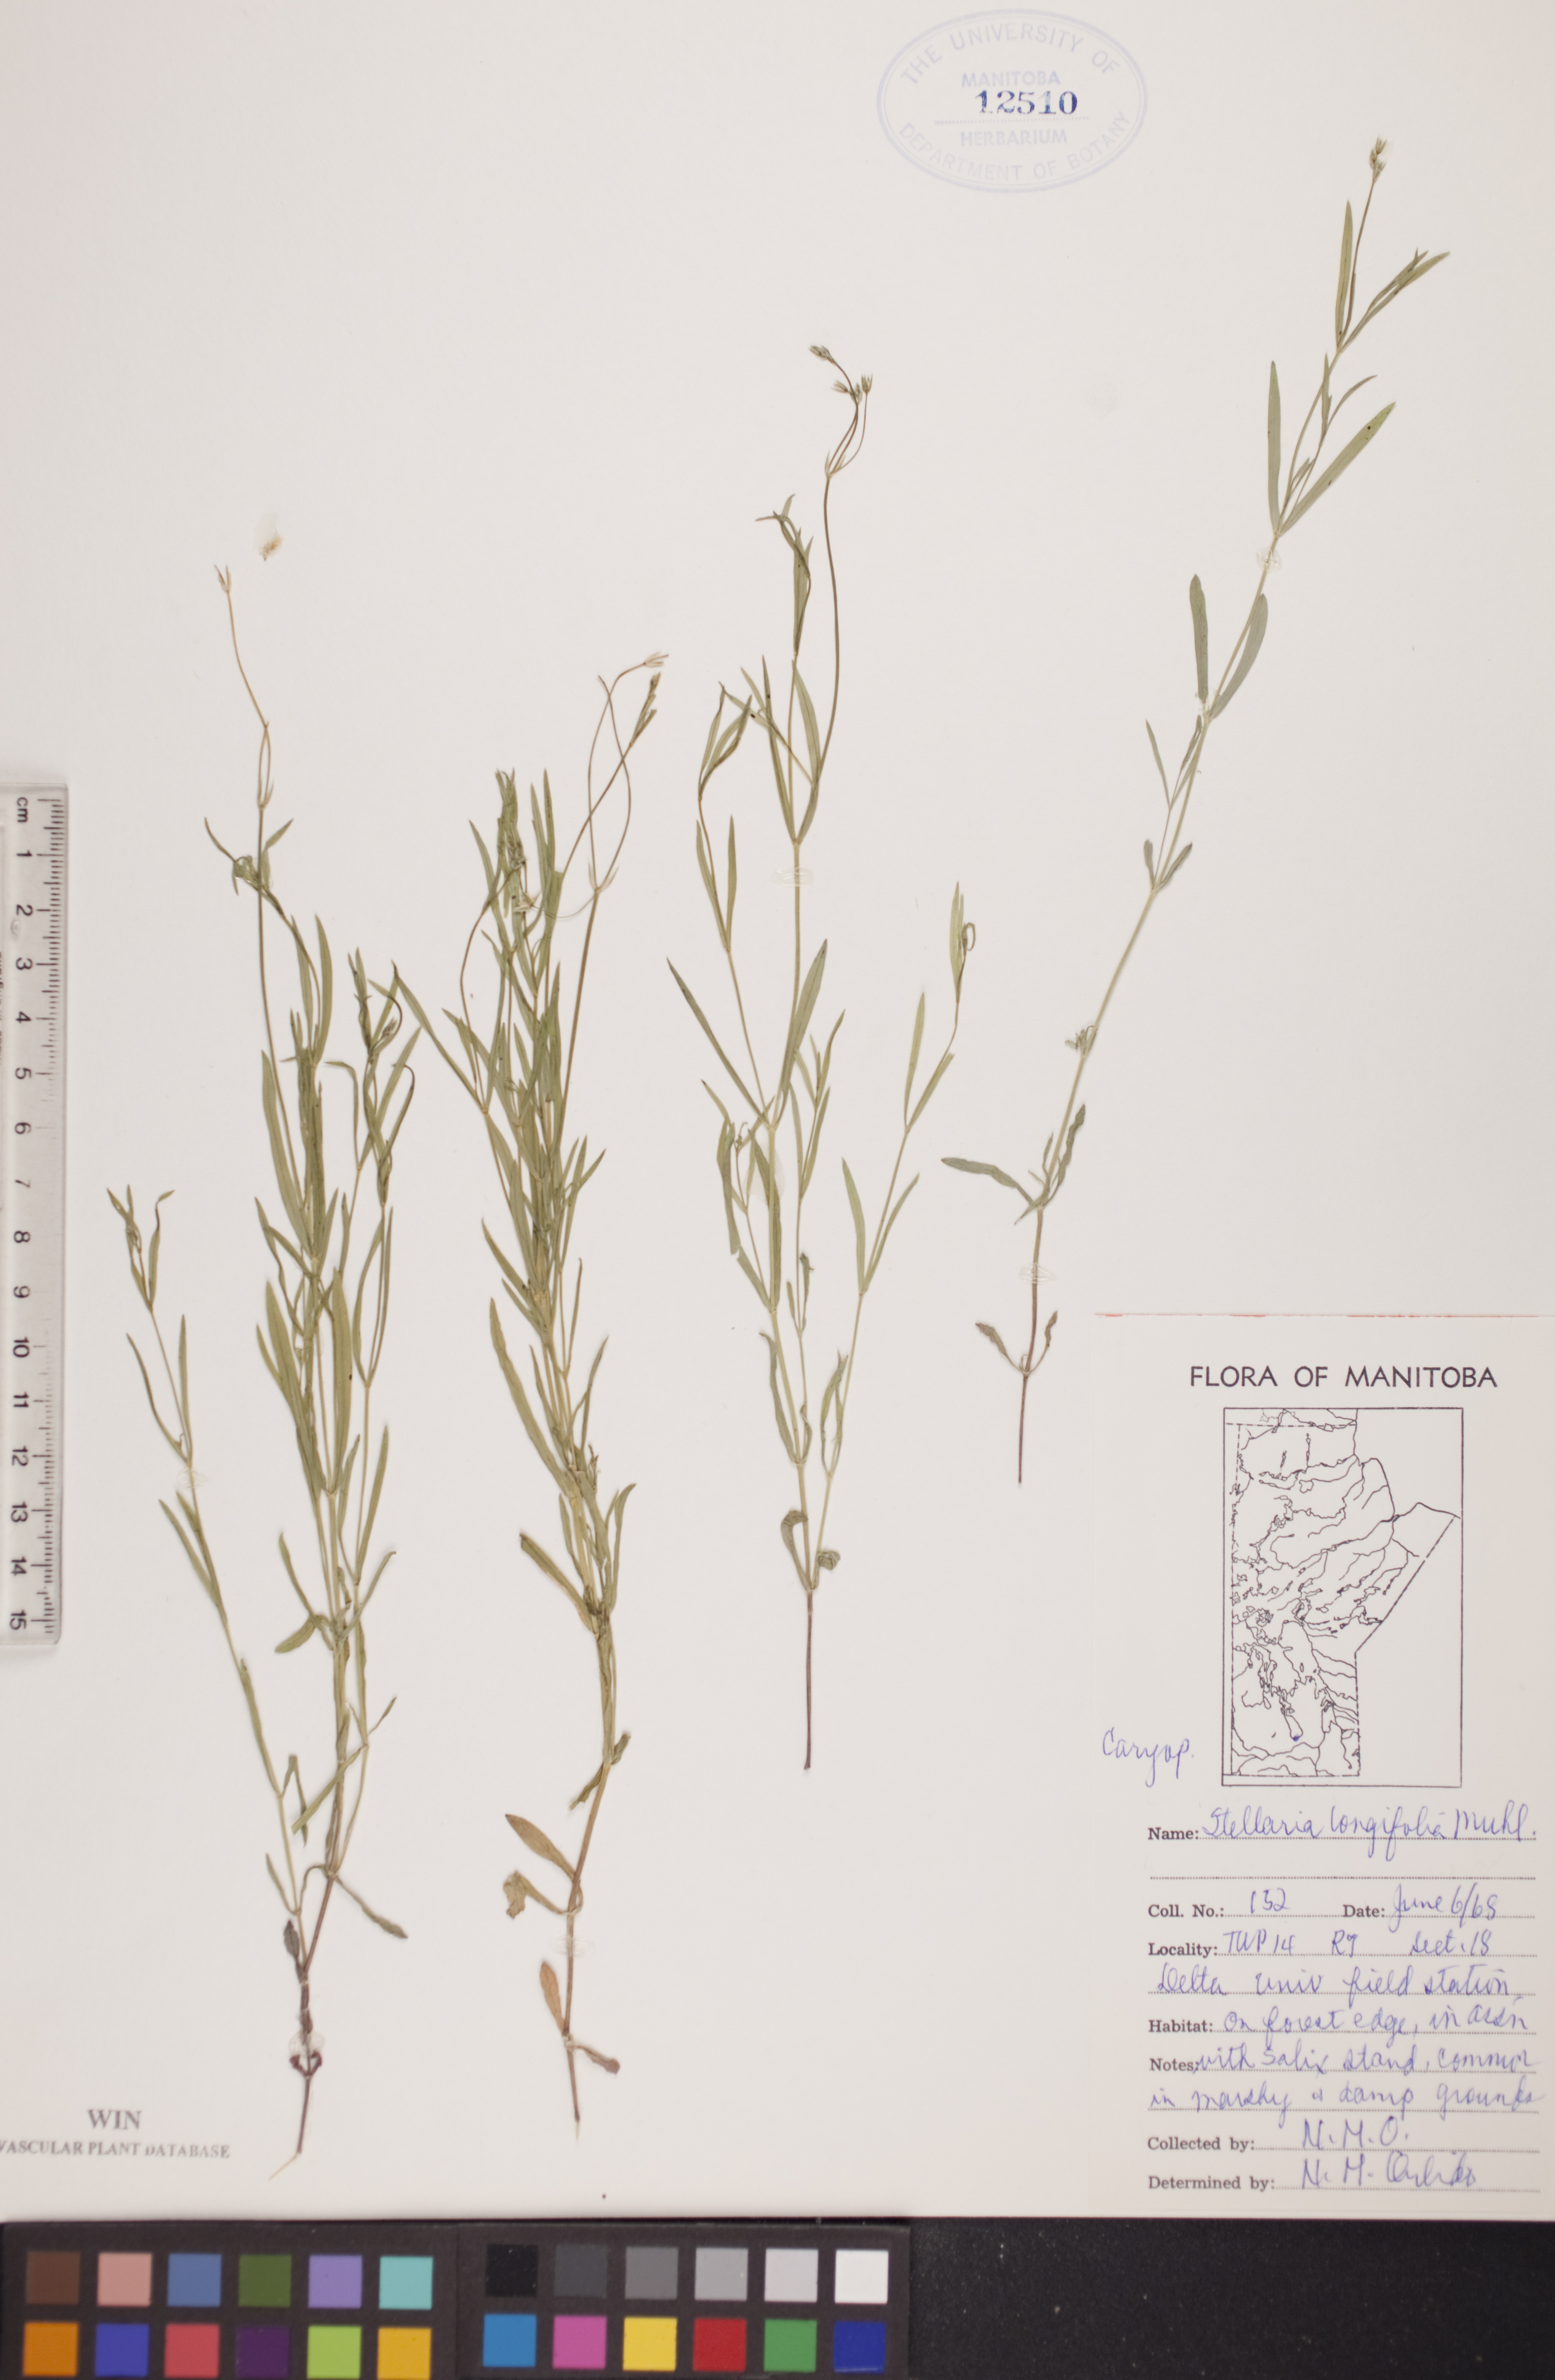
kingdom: Plantae
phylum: Tracheophyta
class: Magnoliopsida
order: Caryophyllales
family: Caryophyllaceae
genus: Stellaria
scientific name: Stellaria longifolia
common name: Long-leaved chickweed
